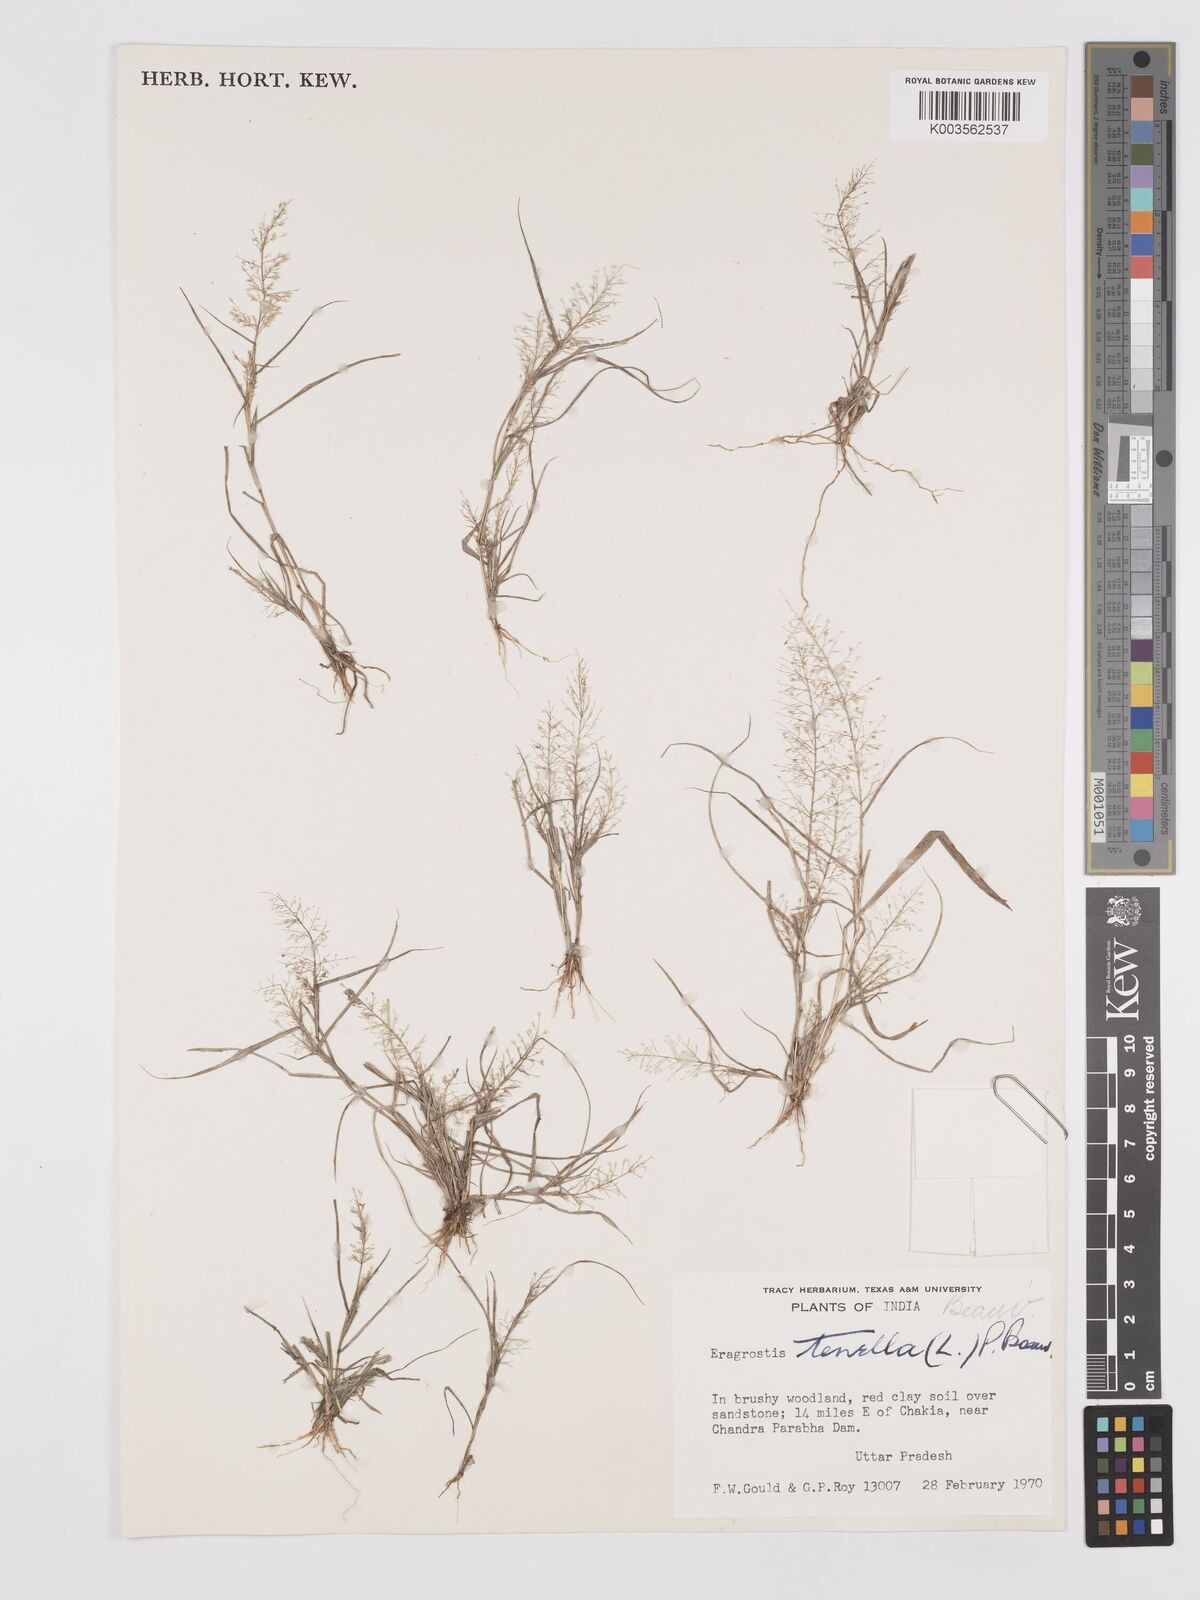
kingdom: Plantae
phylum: Tracheophyta
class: Liliopsida
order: Poales
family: Poaceae
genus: Eragrostis
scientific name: Eragrostis tenella
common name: Japanese lovegrass
